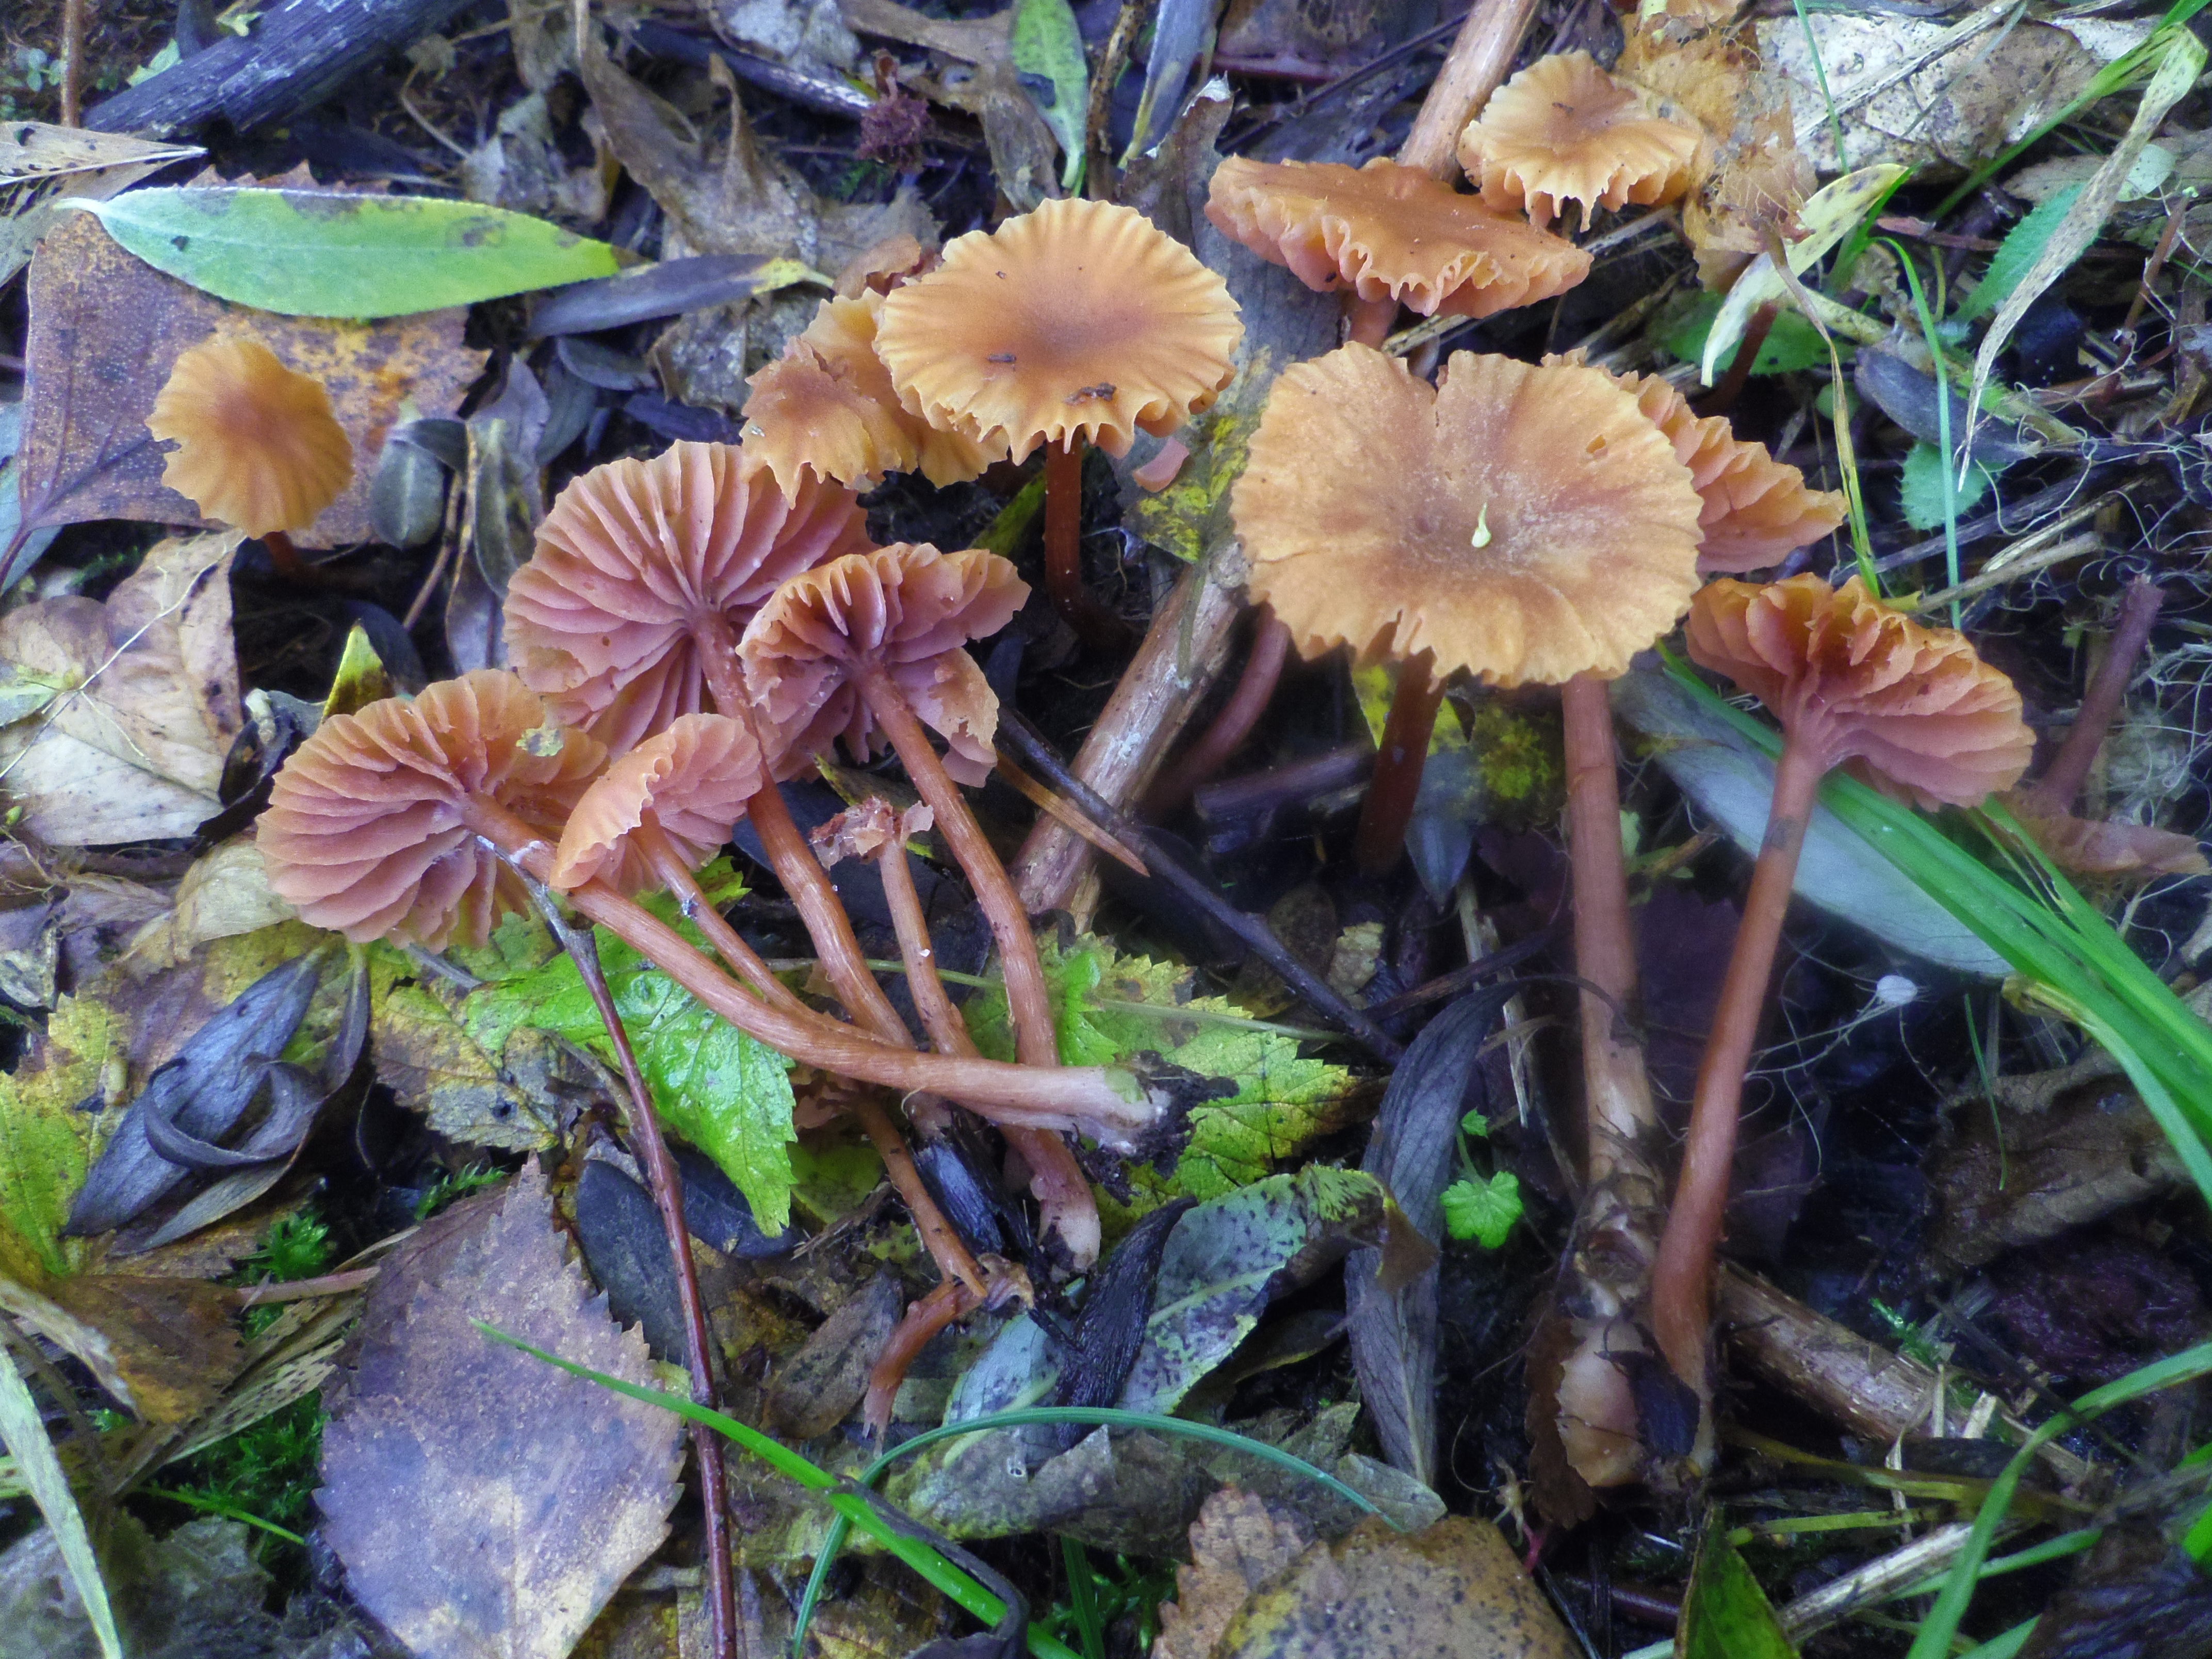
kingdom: Fungi
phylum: Basidiomycota
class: Agaricomycetes
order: Agaricales
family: Hydnangiaceae
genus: Laccaria
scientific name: Laccaria laccata
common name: Deceiver
